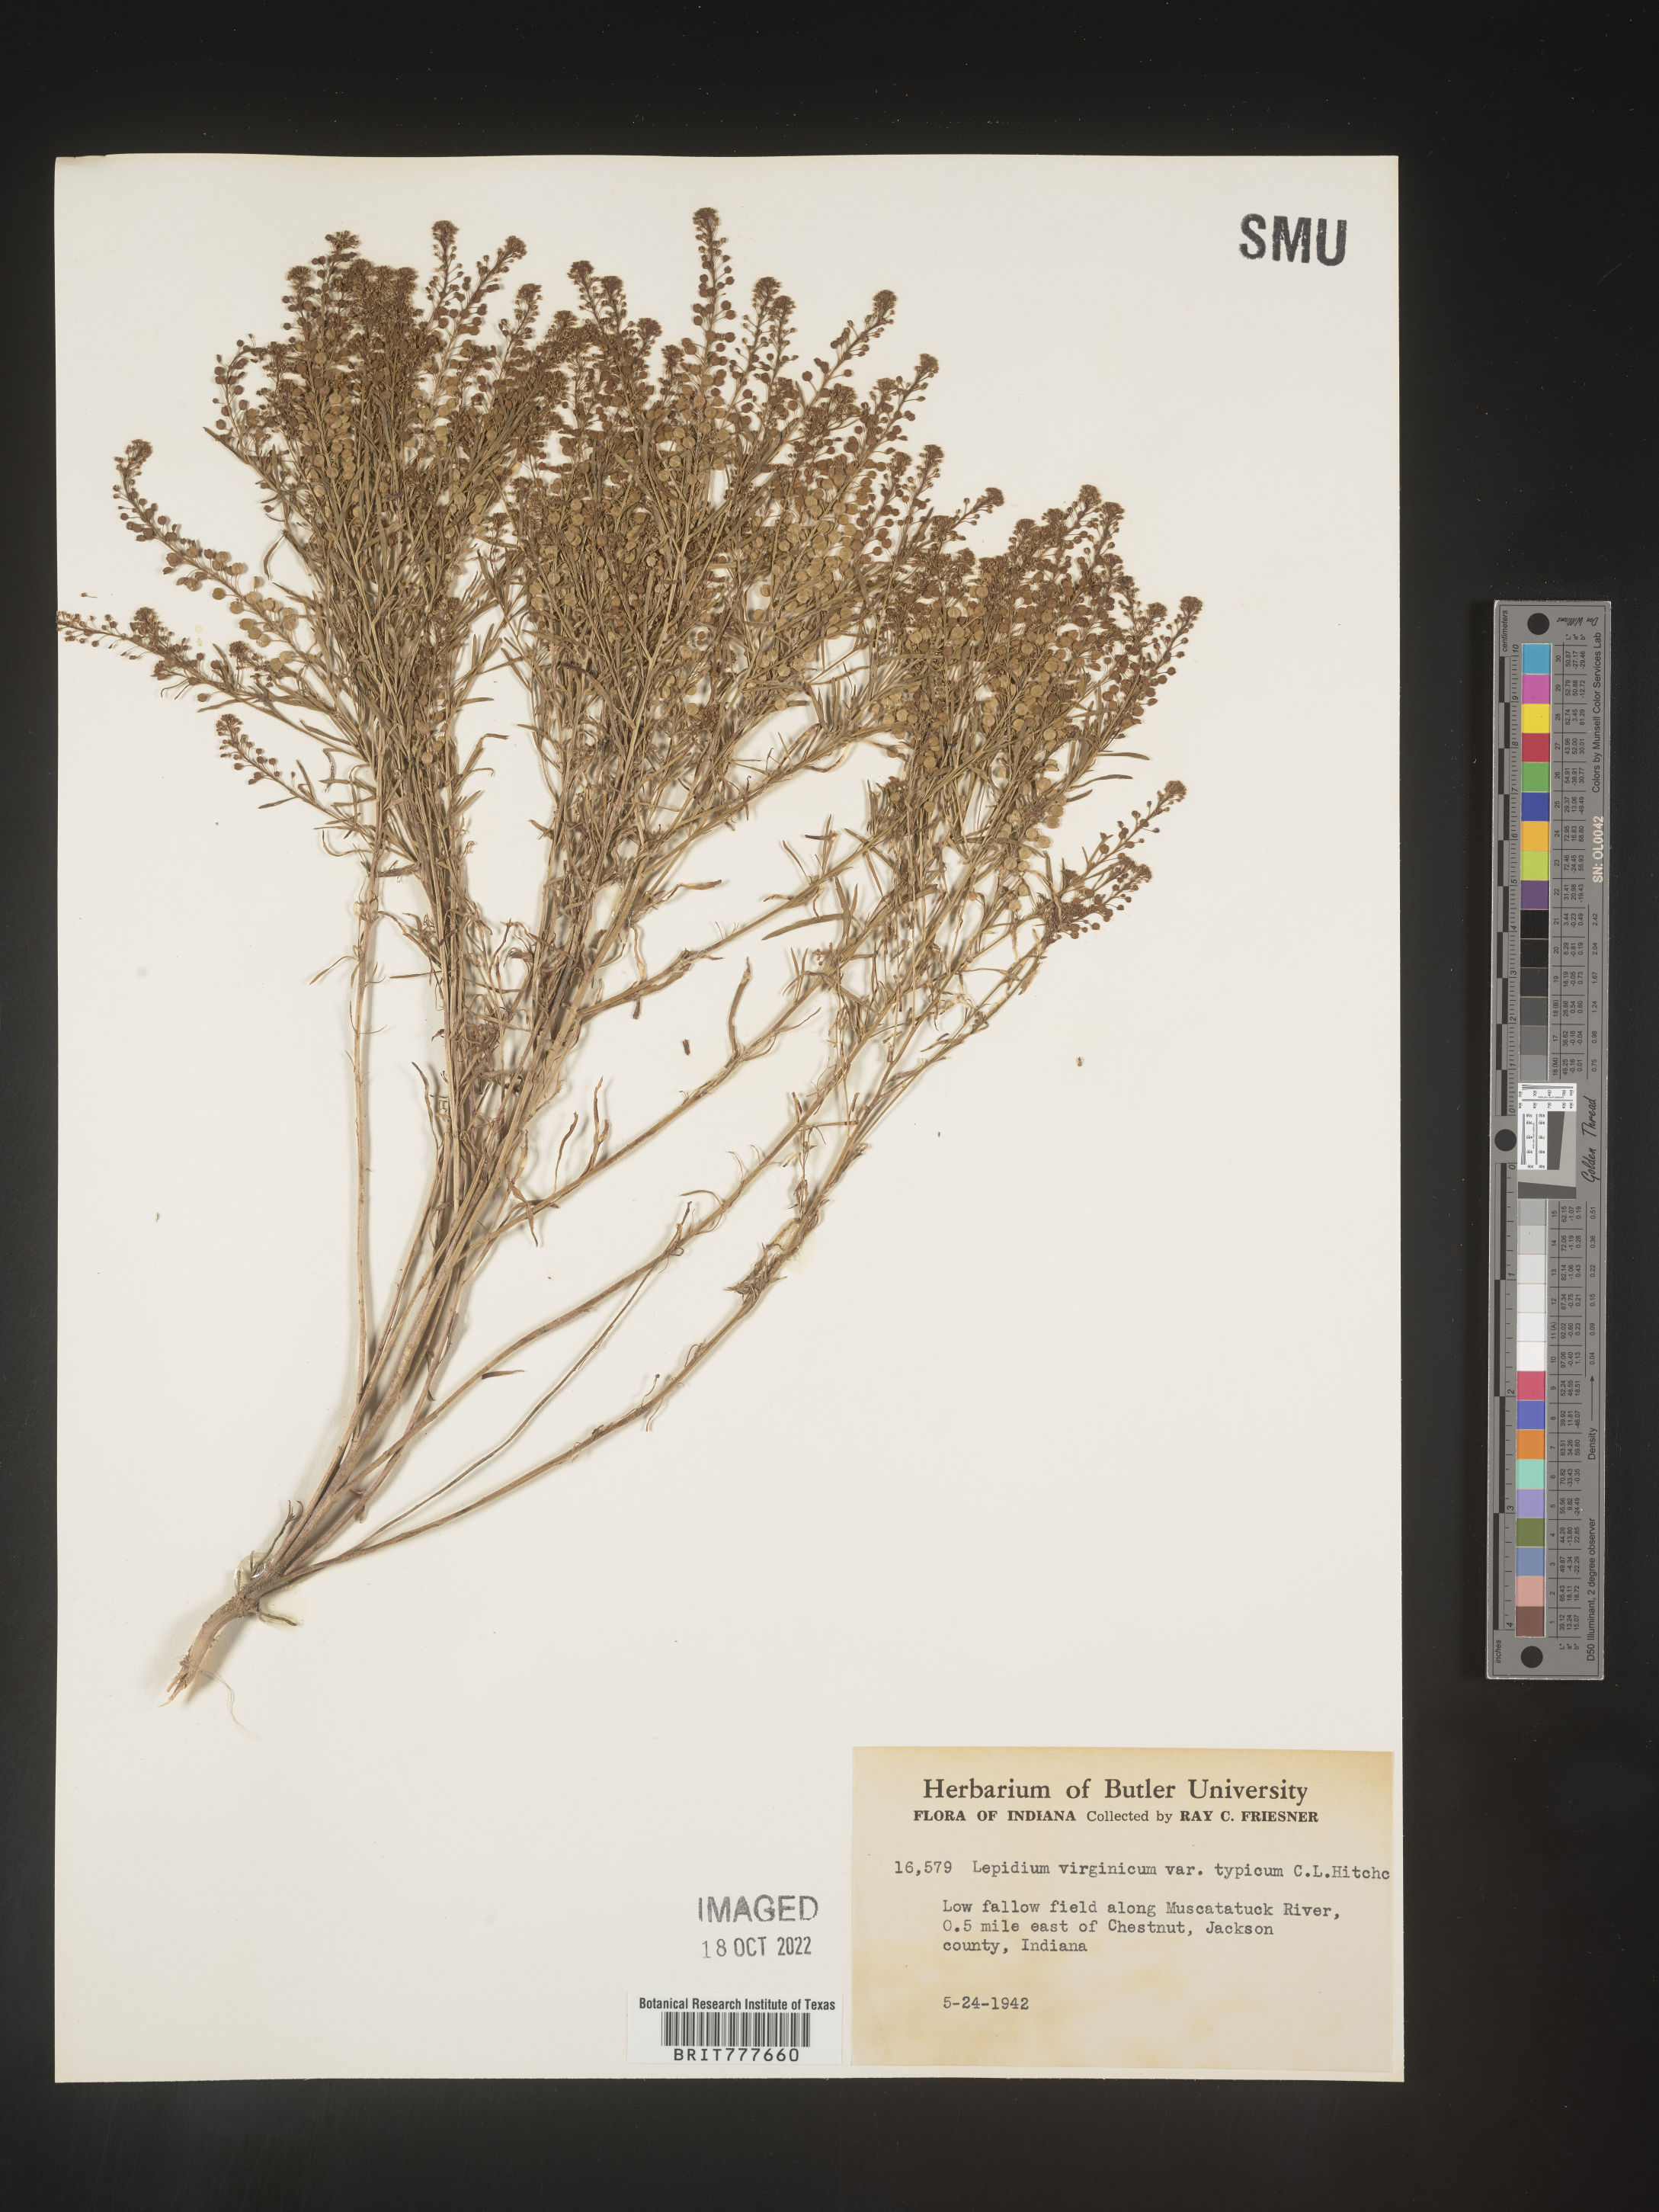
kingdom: Plantae
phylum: Tracheophyta
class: Magnoliopsida
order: Brassicales
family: Brassicaceae
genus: Lepidium
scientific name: Lepidium virginicum
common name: Least pepperwort
